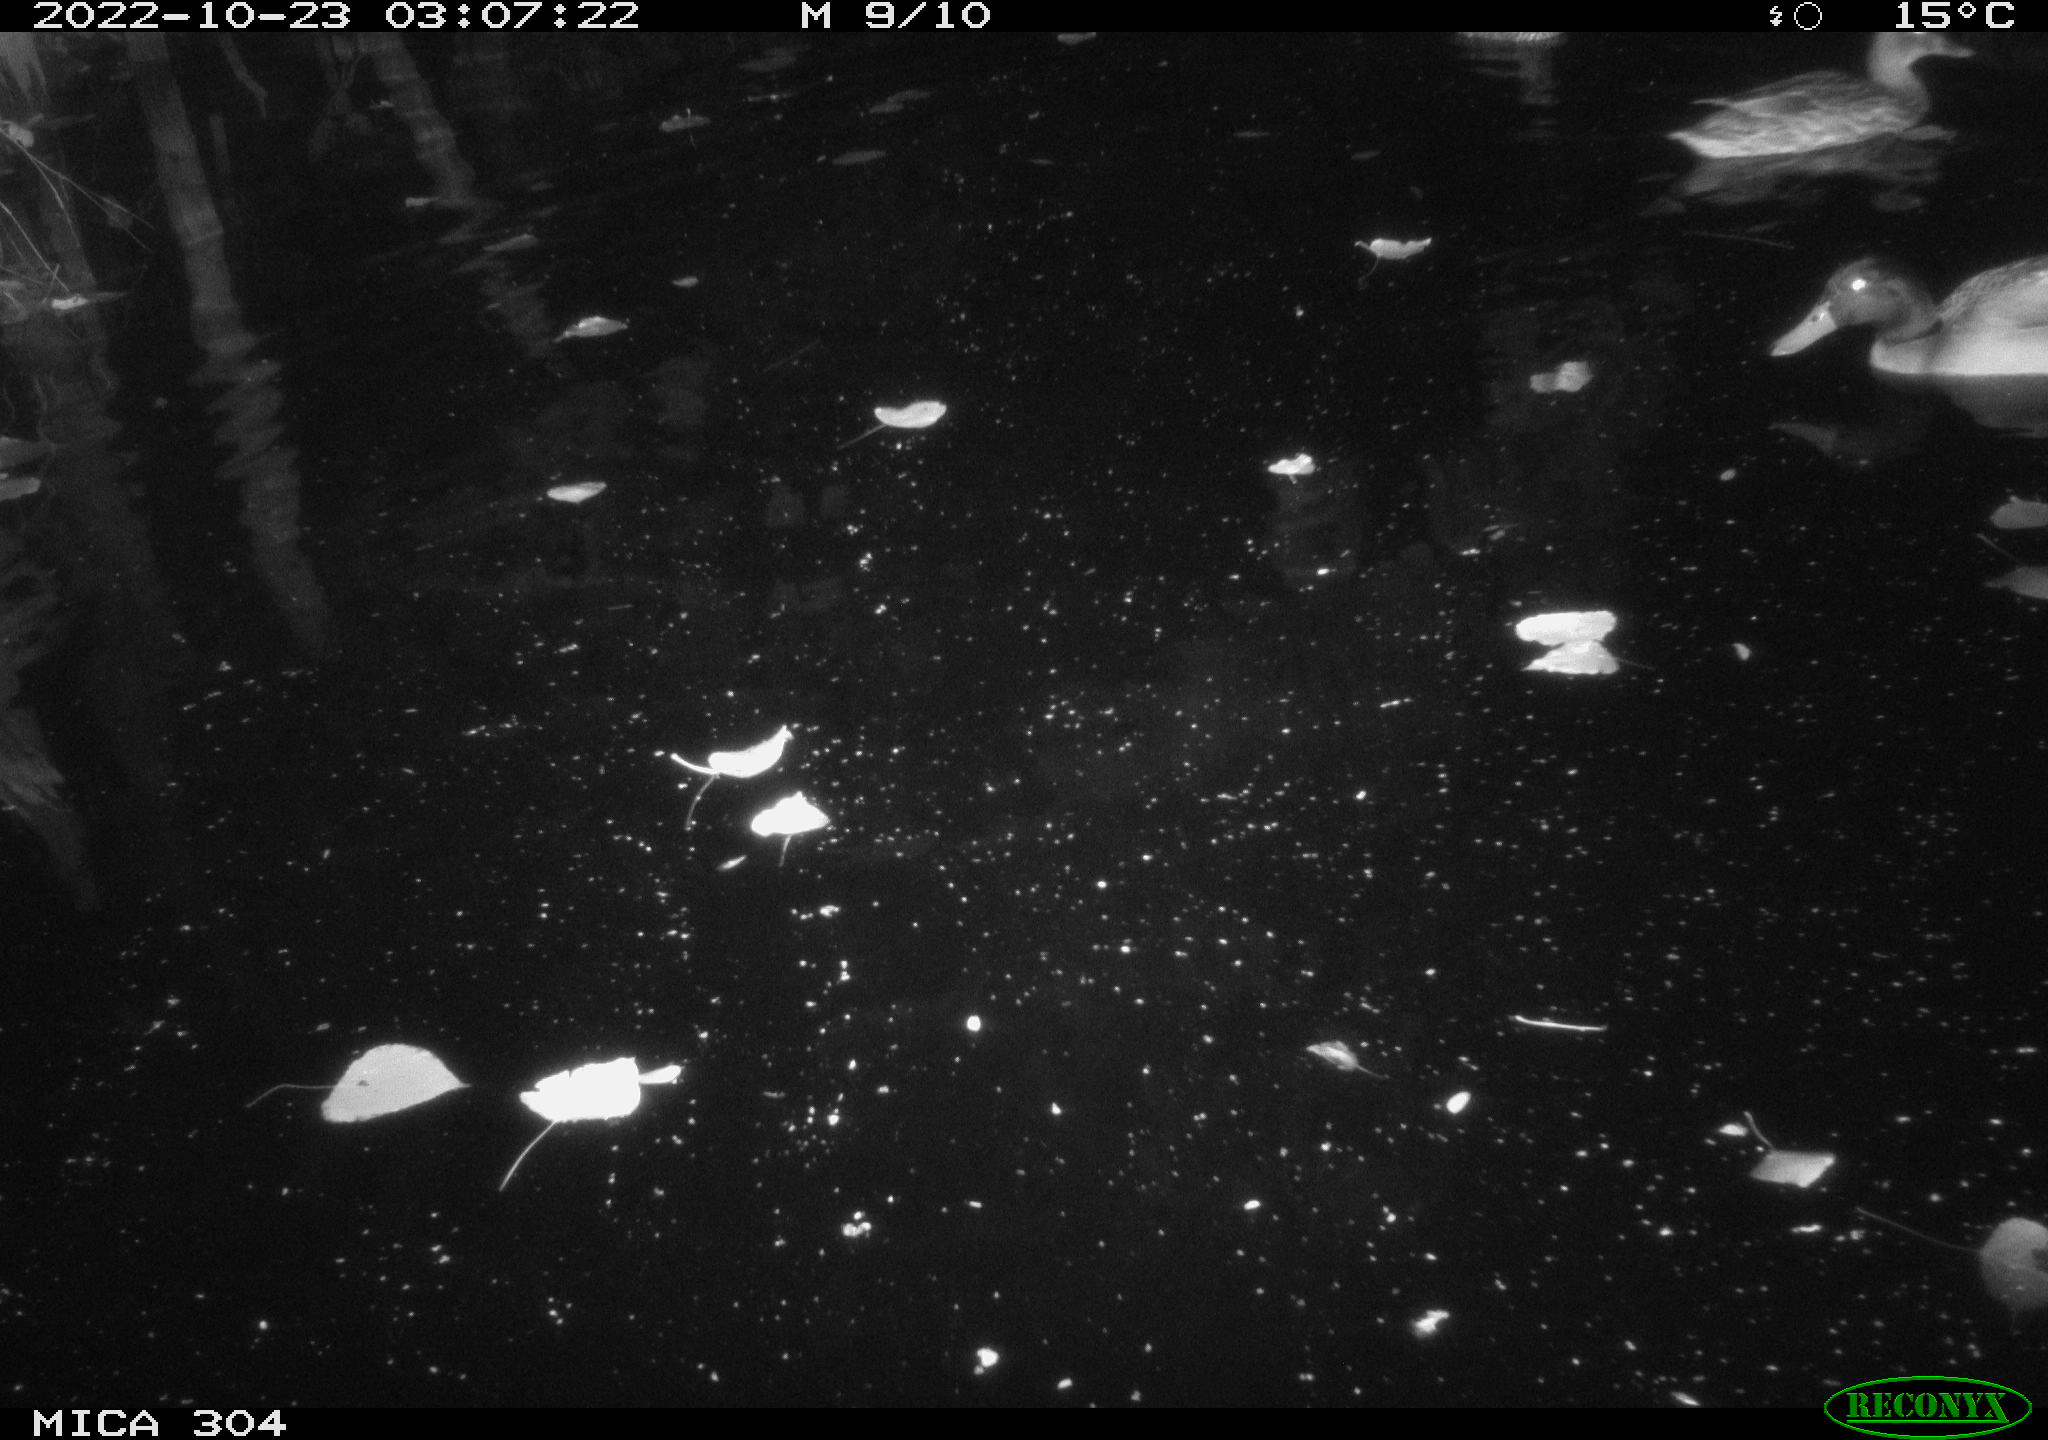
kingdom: Animalia
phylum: Chordata
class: Aves
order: Anseriformes
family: Anatidae
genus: Anas
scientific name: Anas
